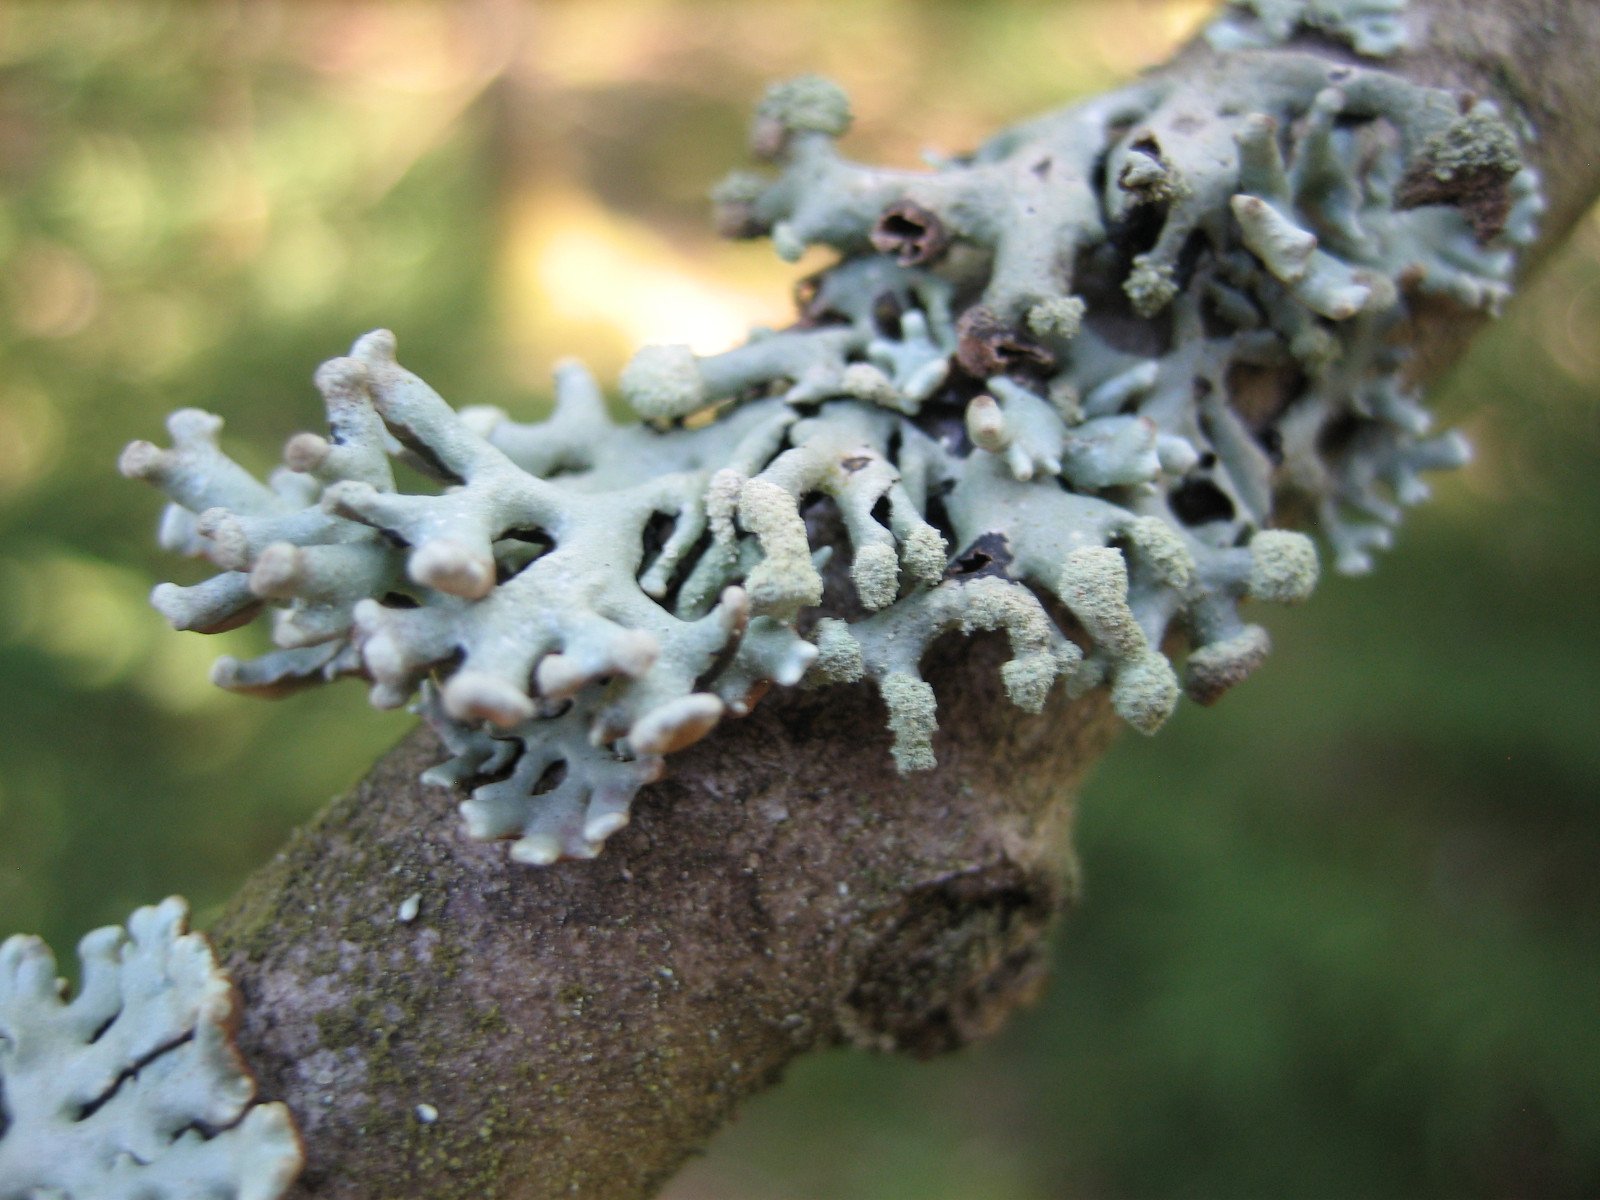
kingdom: Fungi
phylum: Ascomycota
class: Lecanoromycetes
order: Lecanorales
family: Parmeliaceae
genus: Hypogymnia
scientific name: Hypogymnia tubulosa
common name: finger-kvistlav
